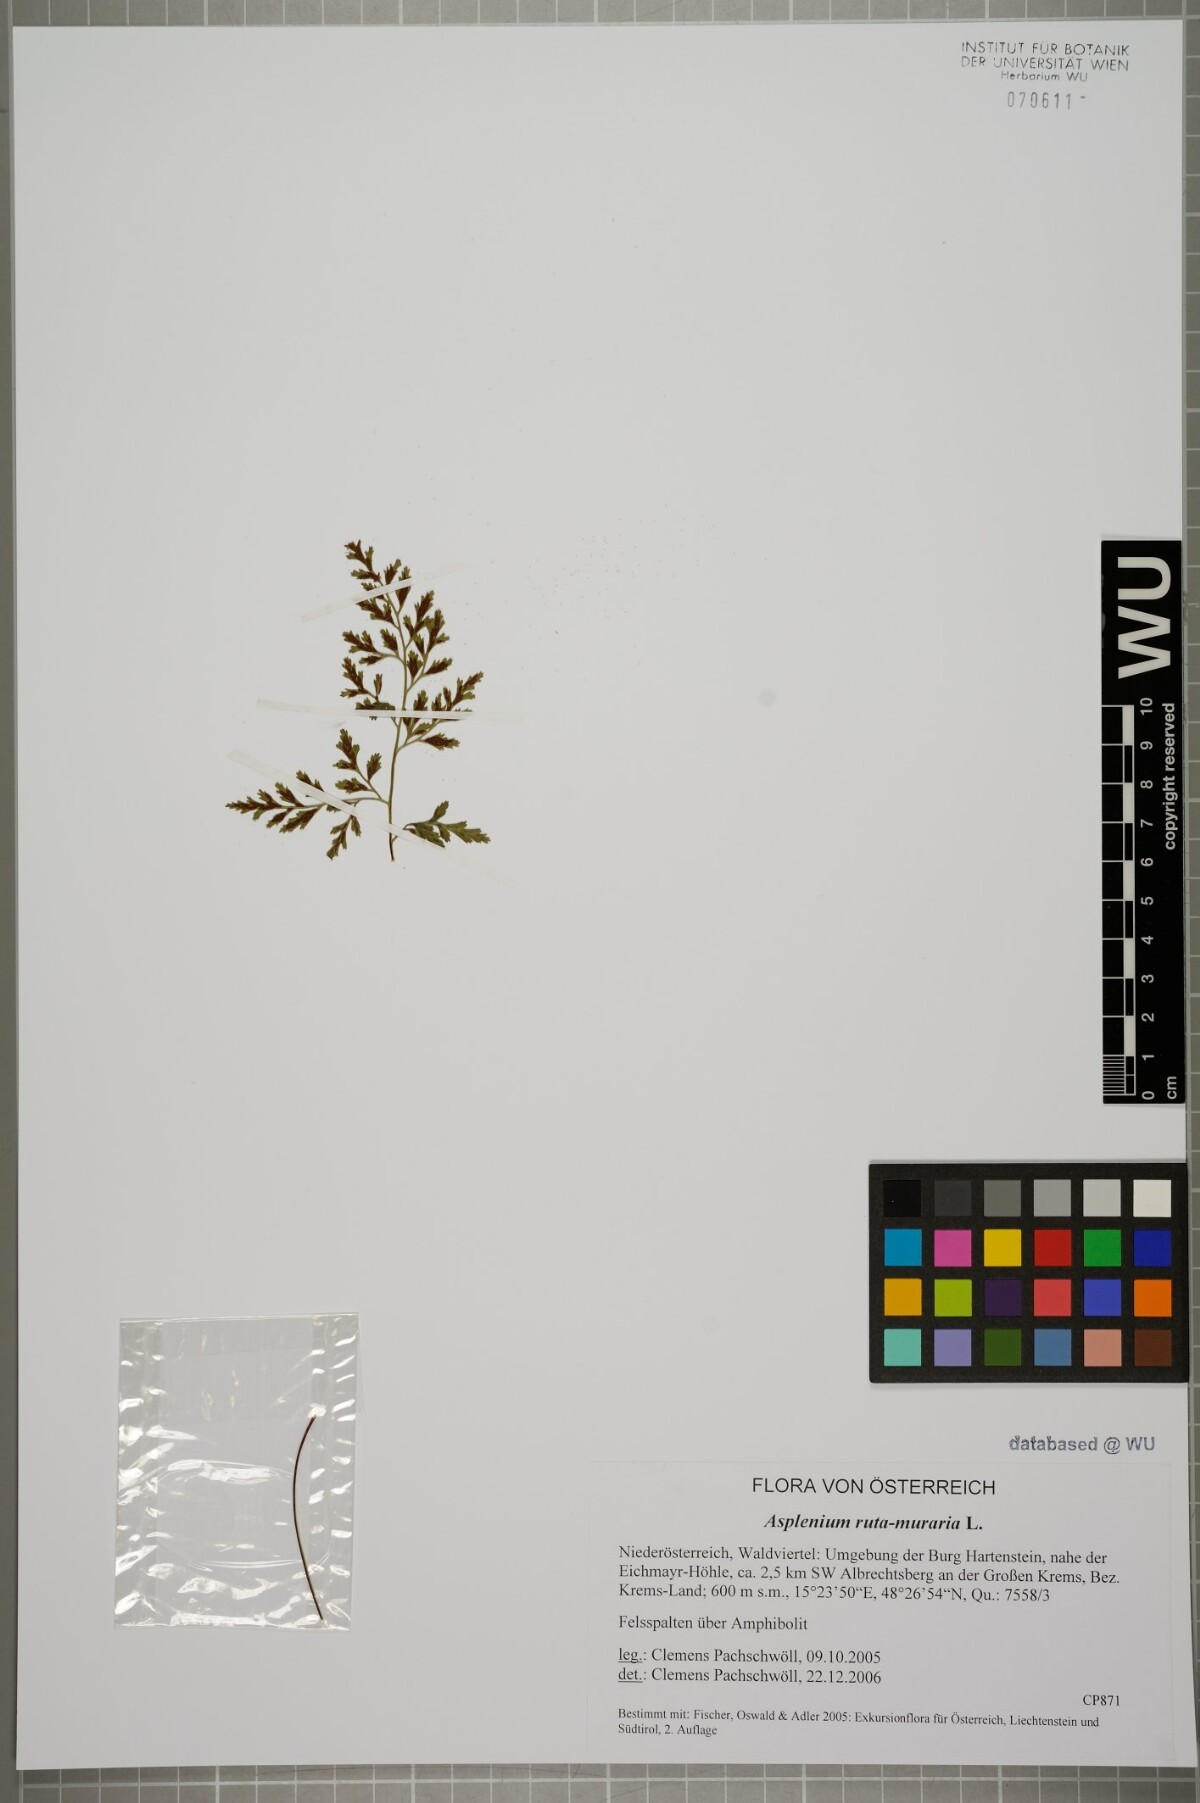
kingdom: Plantae
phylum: Tracheophyta
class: Polypodiopsida
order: Polypodiales
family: Aspleniaceae
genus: Asplenium
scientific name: Asplenium ruta-muraria
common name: Wall-rue
